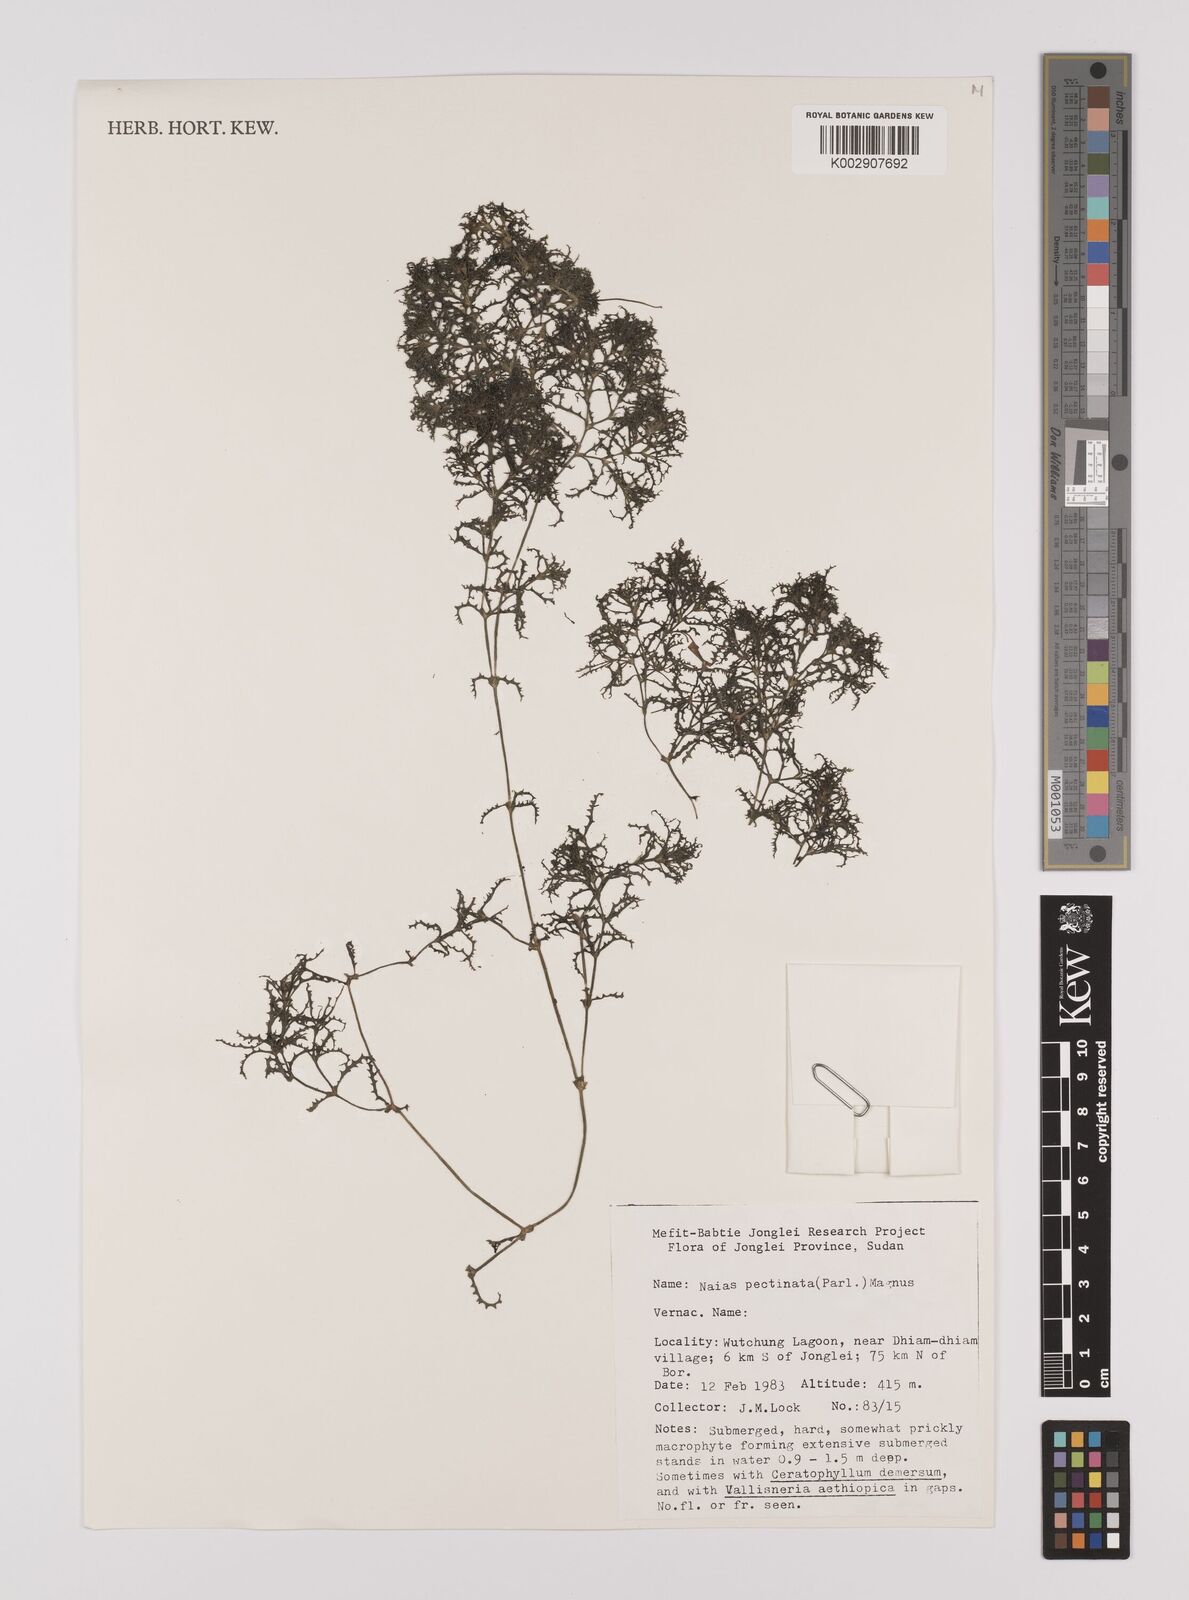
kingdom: Plantae
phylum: Tracheophyta
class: Liliopsida
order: Alismatales
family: Hydrocharitaceae
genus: Najas
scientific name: Najas horrida
